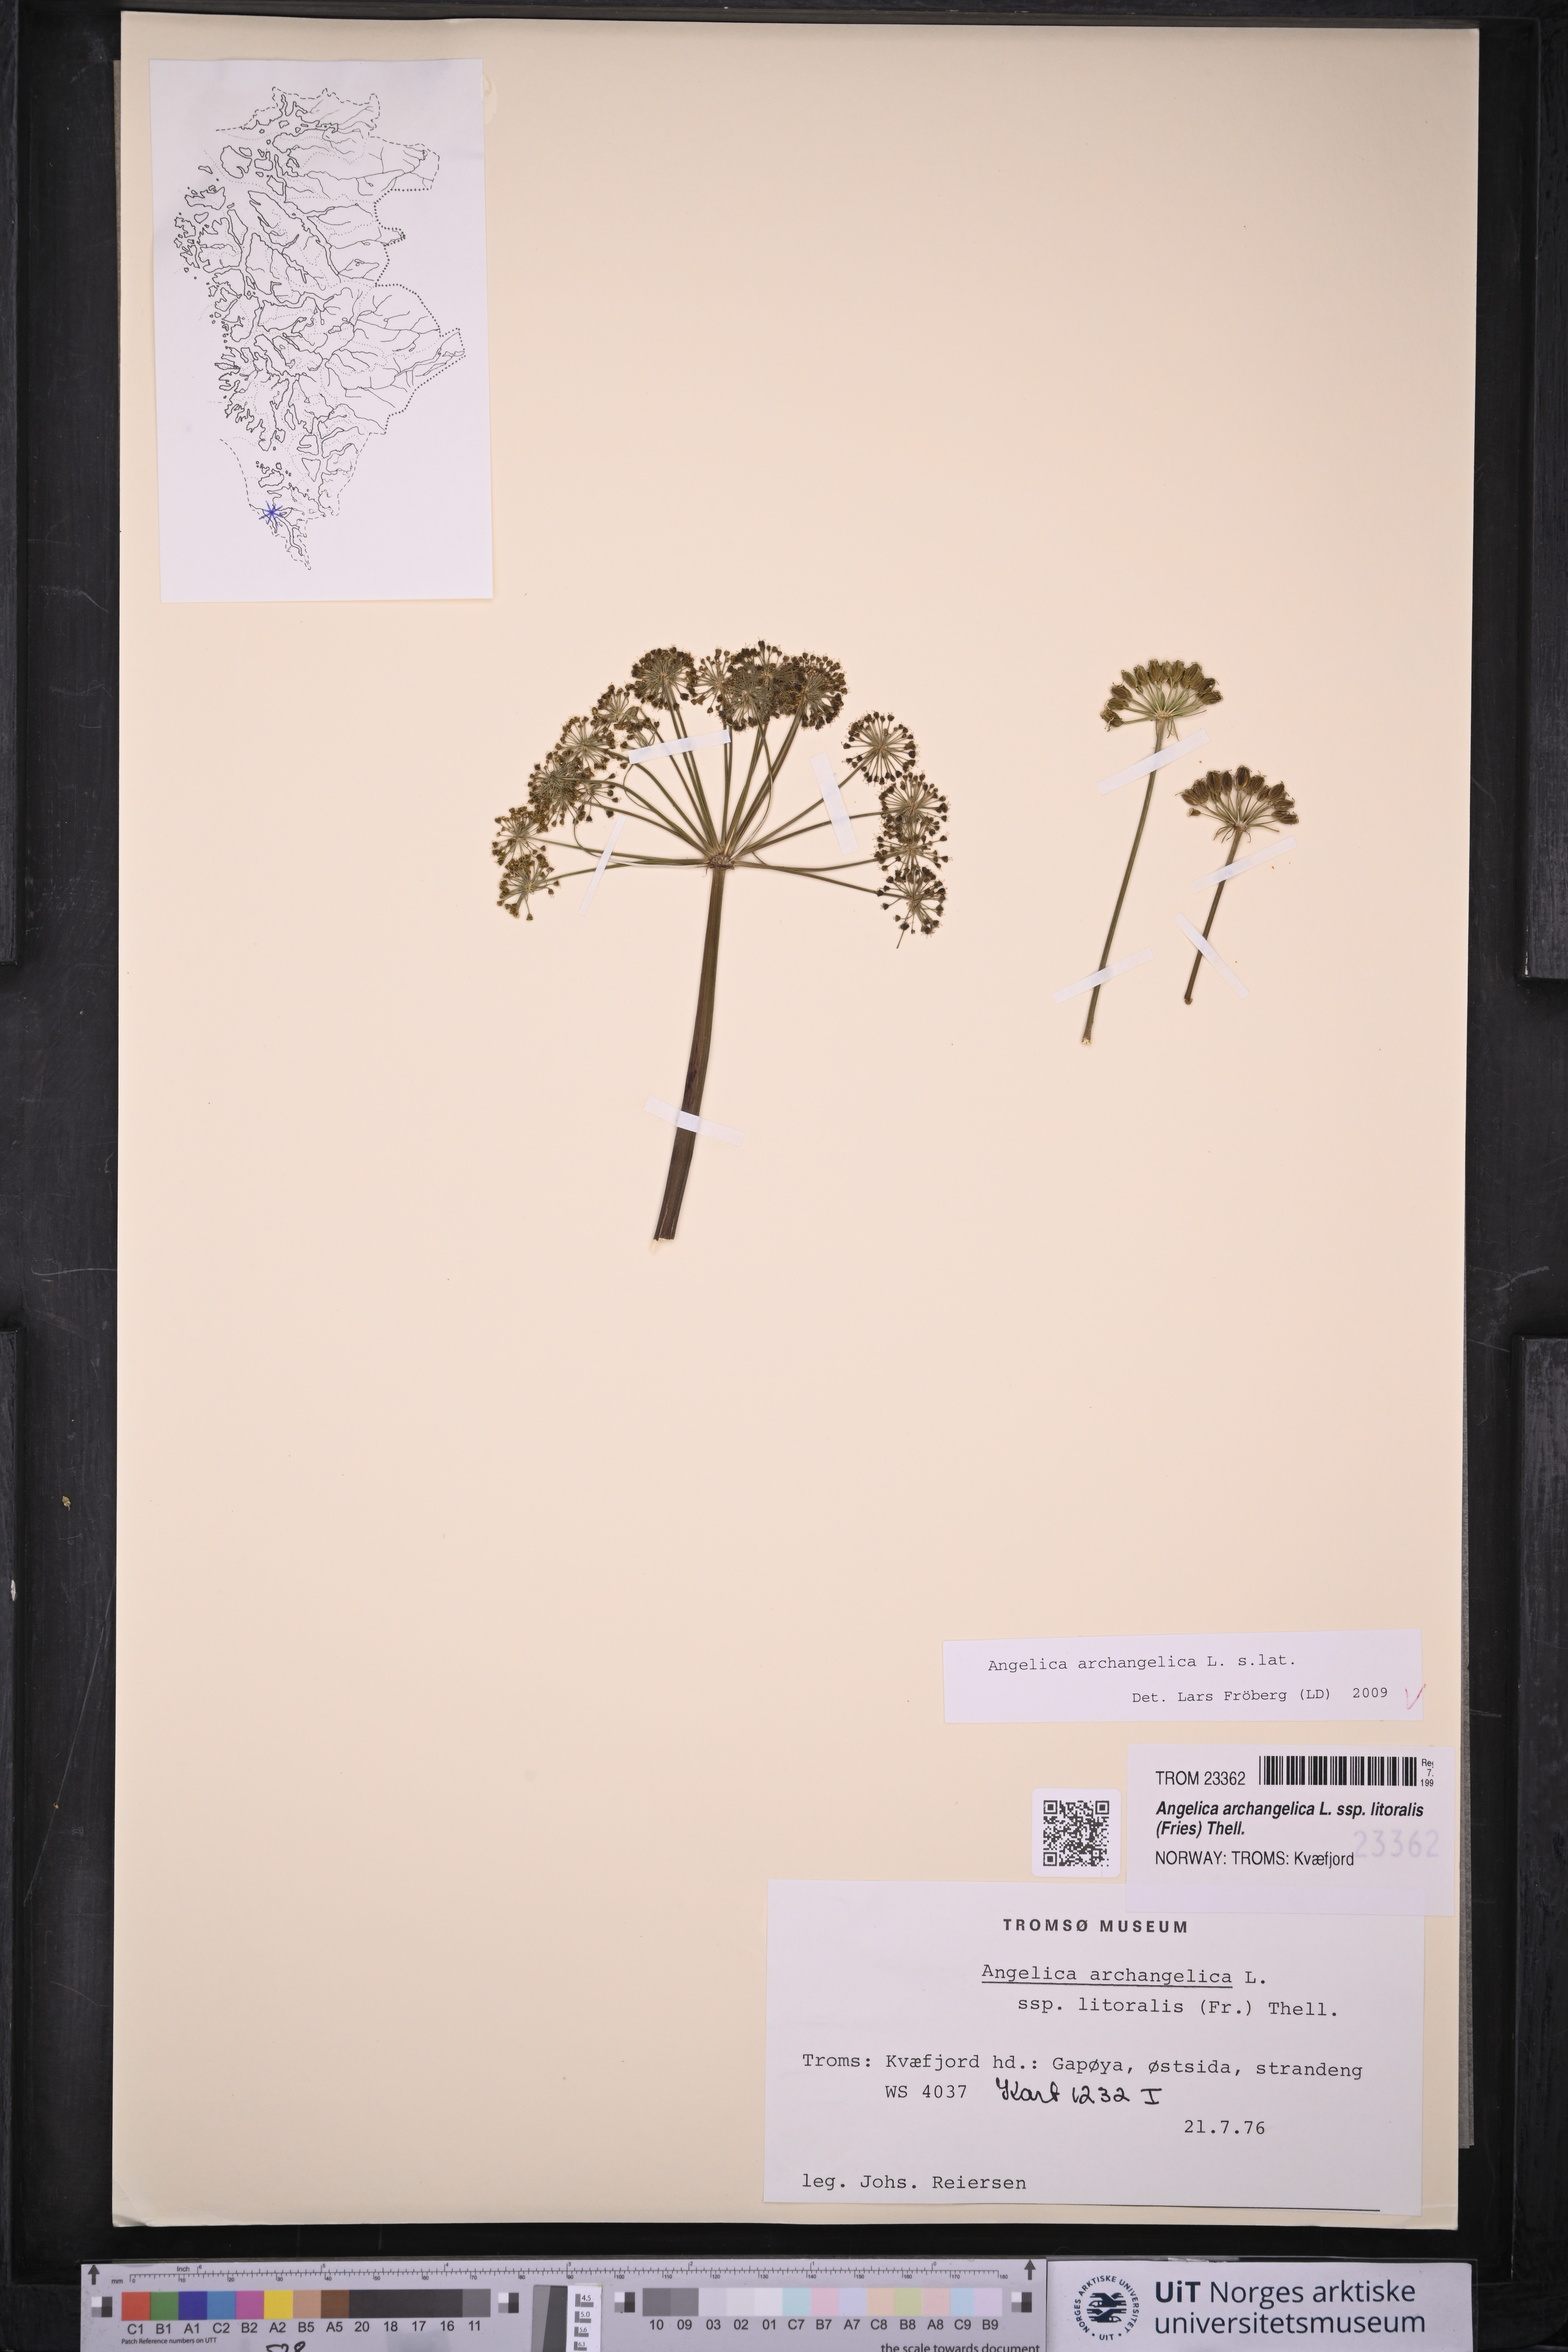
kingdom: Plantae
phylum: Tracheophyta
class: Magnoliopsida
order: Apiales
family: Apiaceae
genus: Angelica
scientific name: Angelica archangelica
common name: Garden angelica
